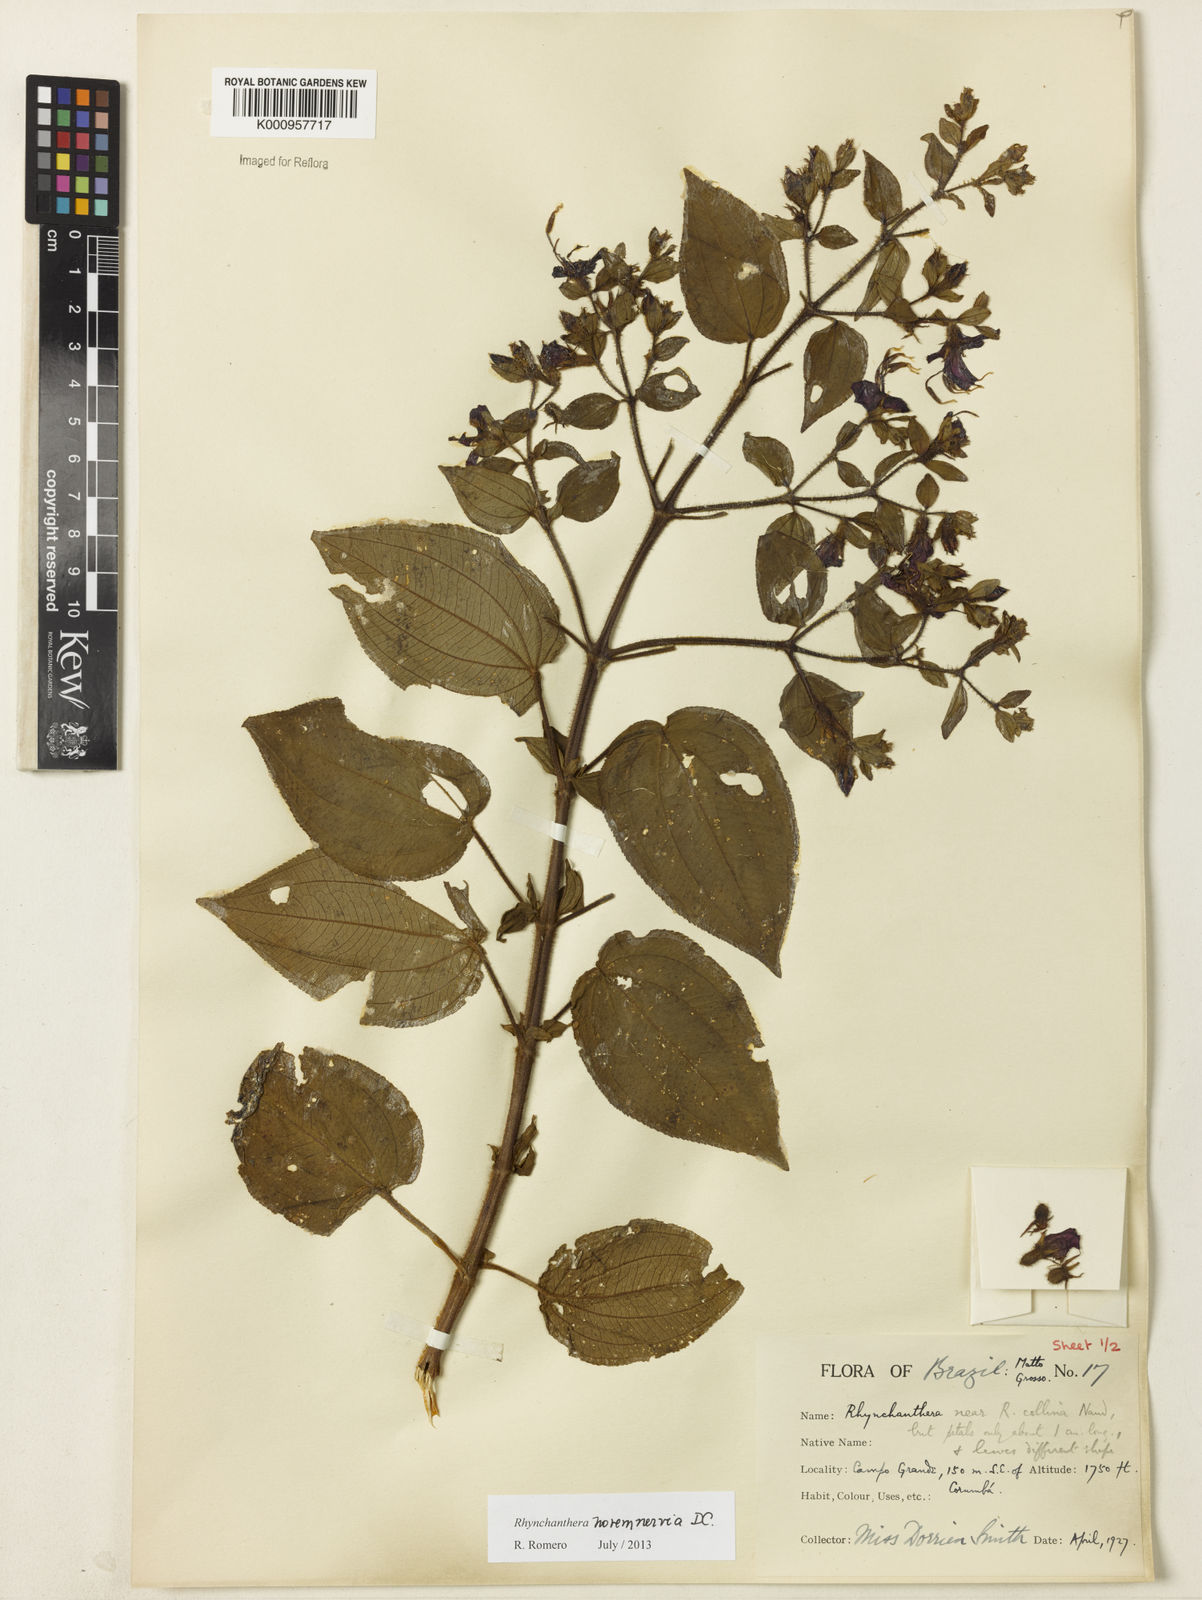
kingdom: Plantae
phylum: Tracheophyta
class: Magnoliopsida
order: Myrtales
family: Melastomataceae
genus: Rhynchanthera
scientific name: Rhynchanthera novemnervia
